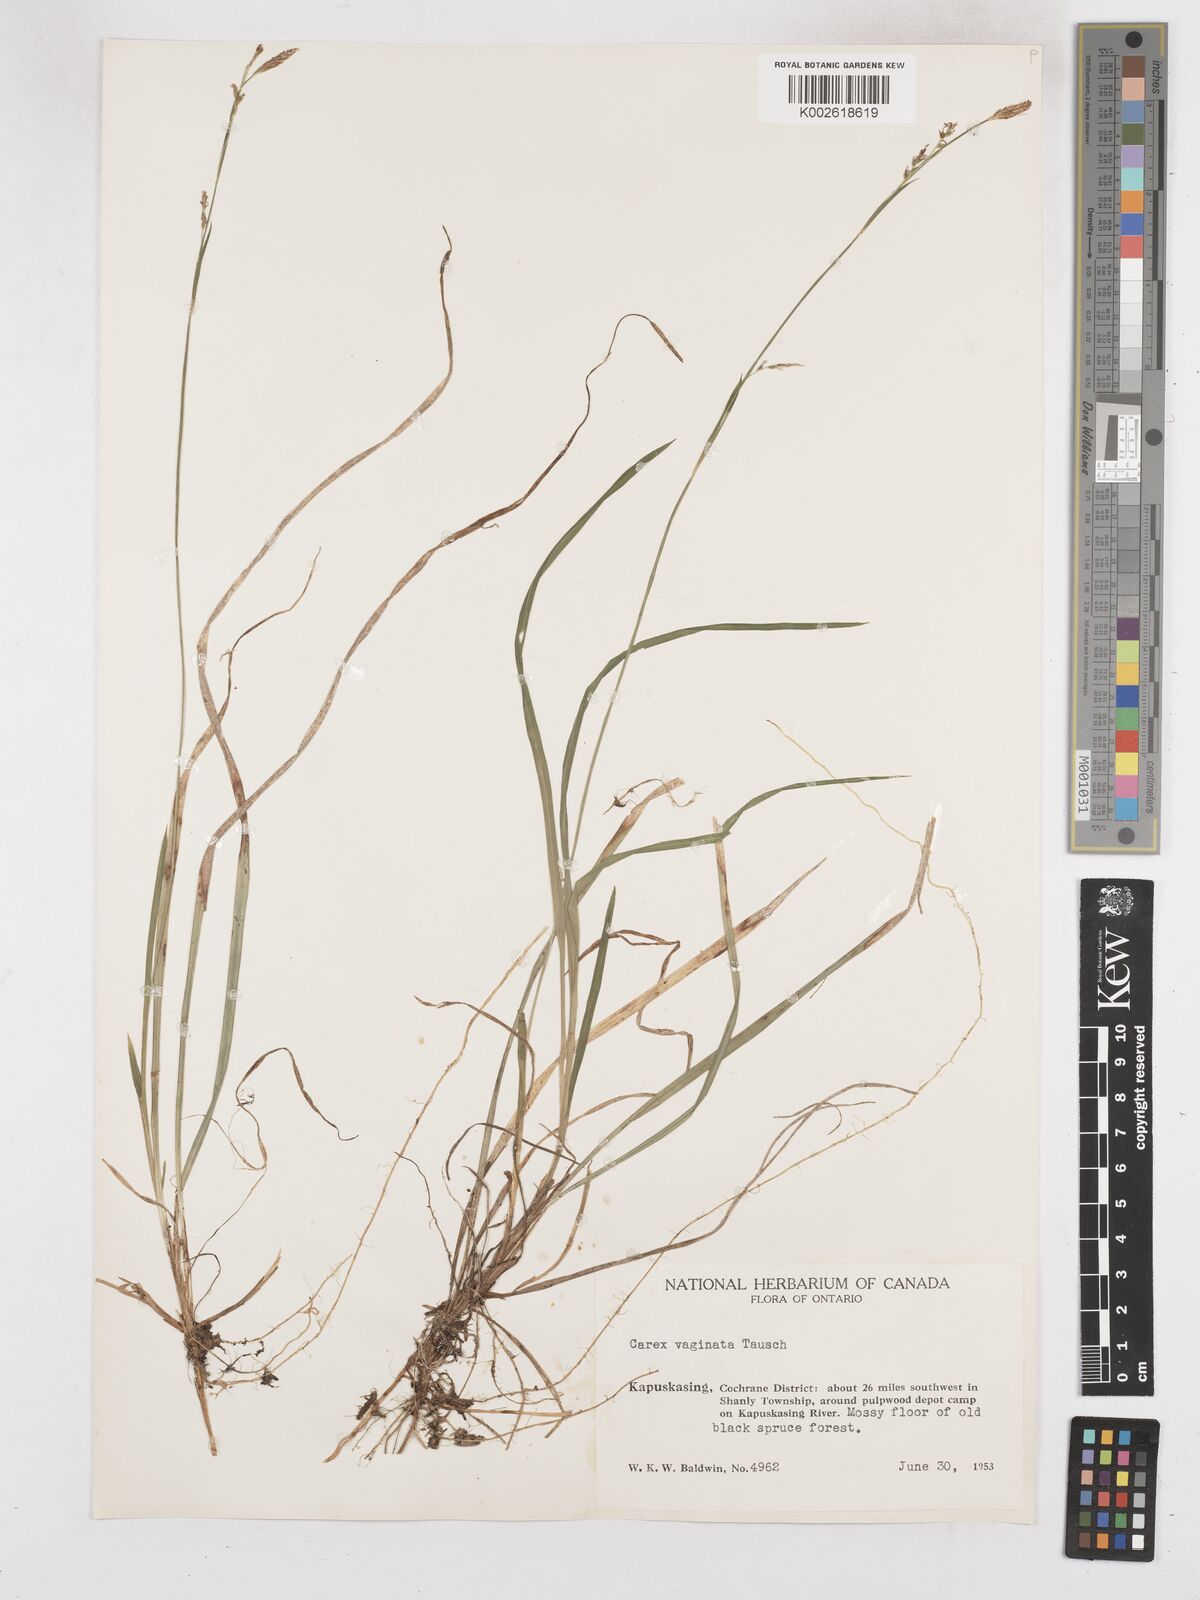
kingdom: Plantae
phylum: Tracheophyta
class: Liliopsida
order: Poales
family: Cyperaceae
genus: Carex
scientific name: Carex vaginata
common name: Sheathed sedge
